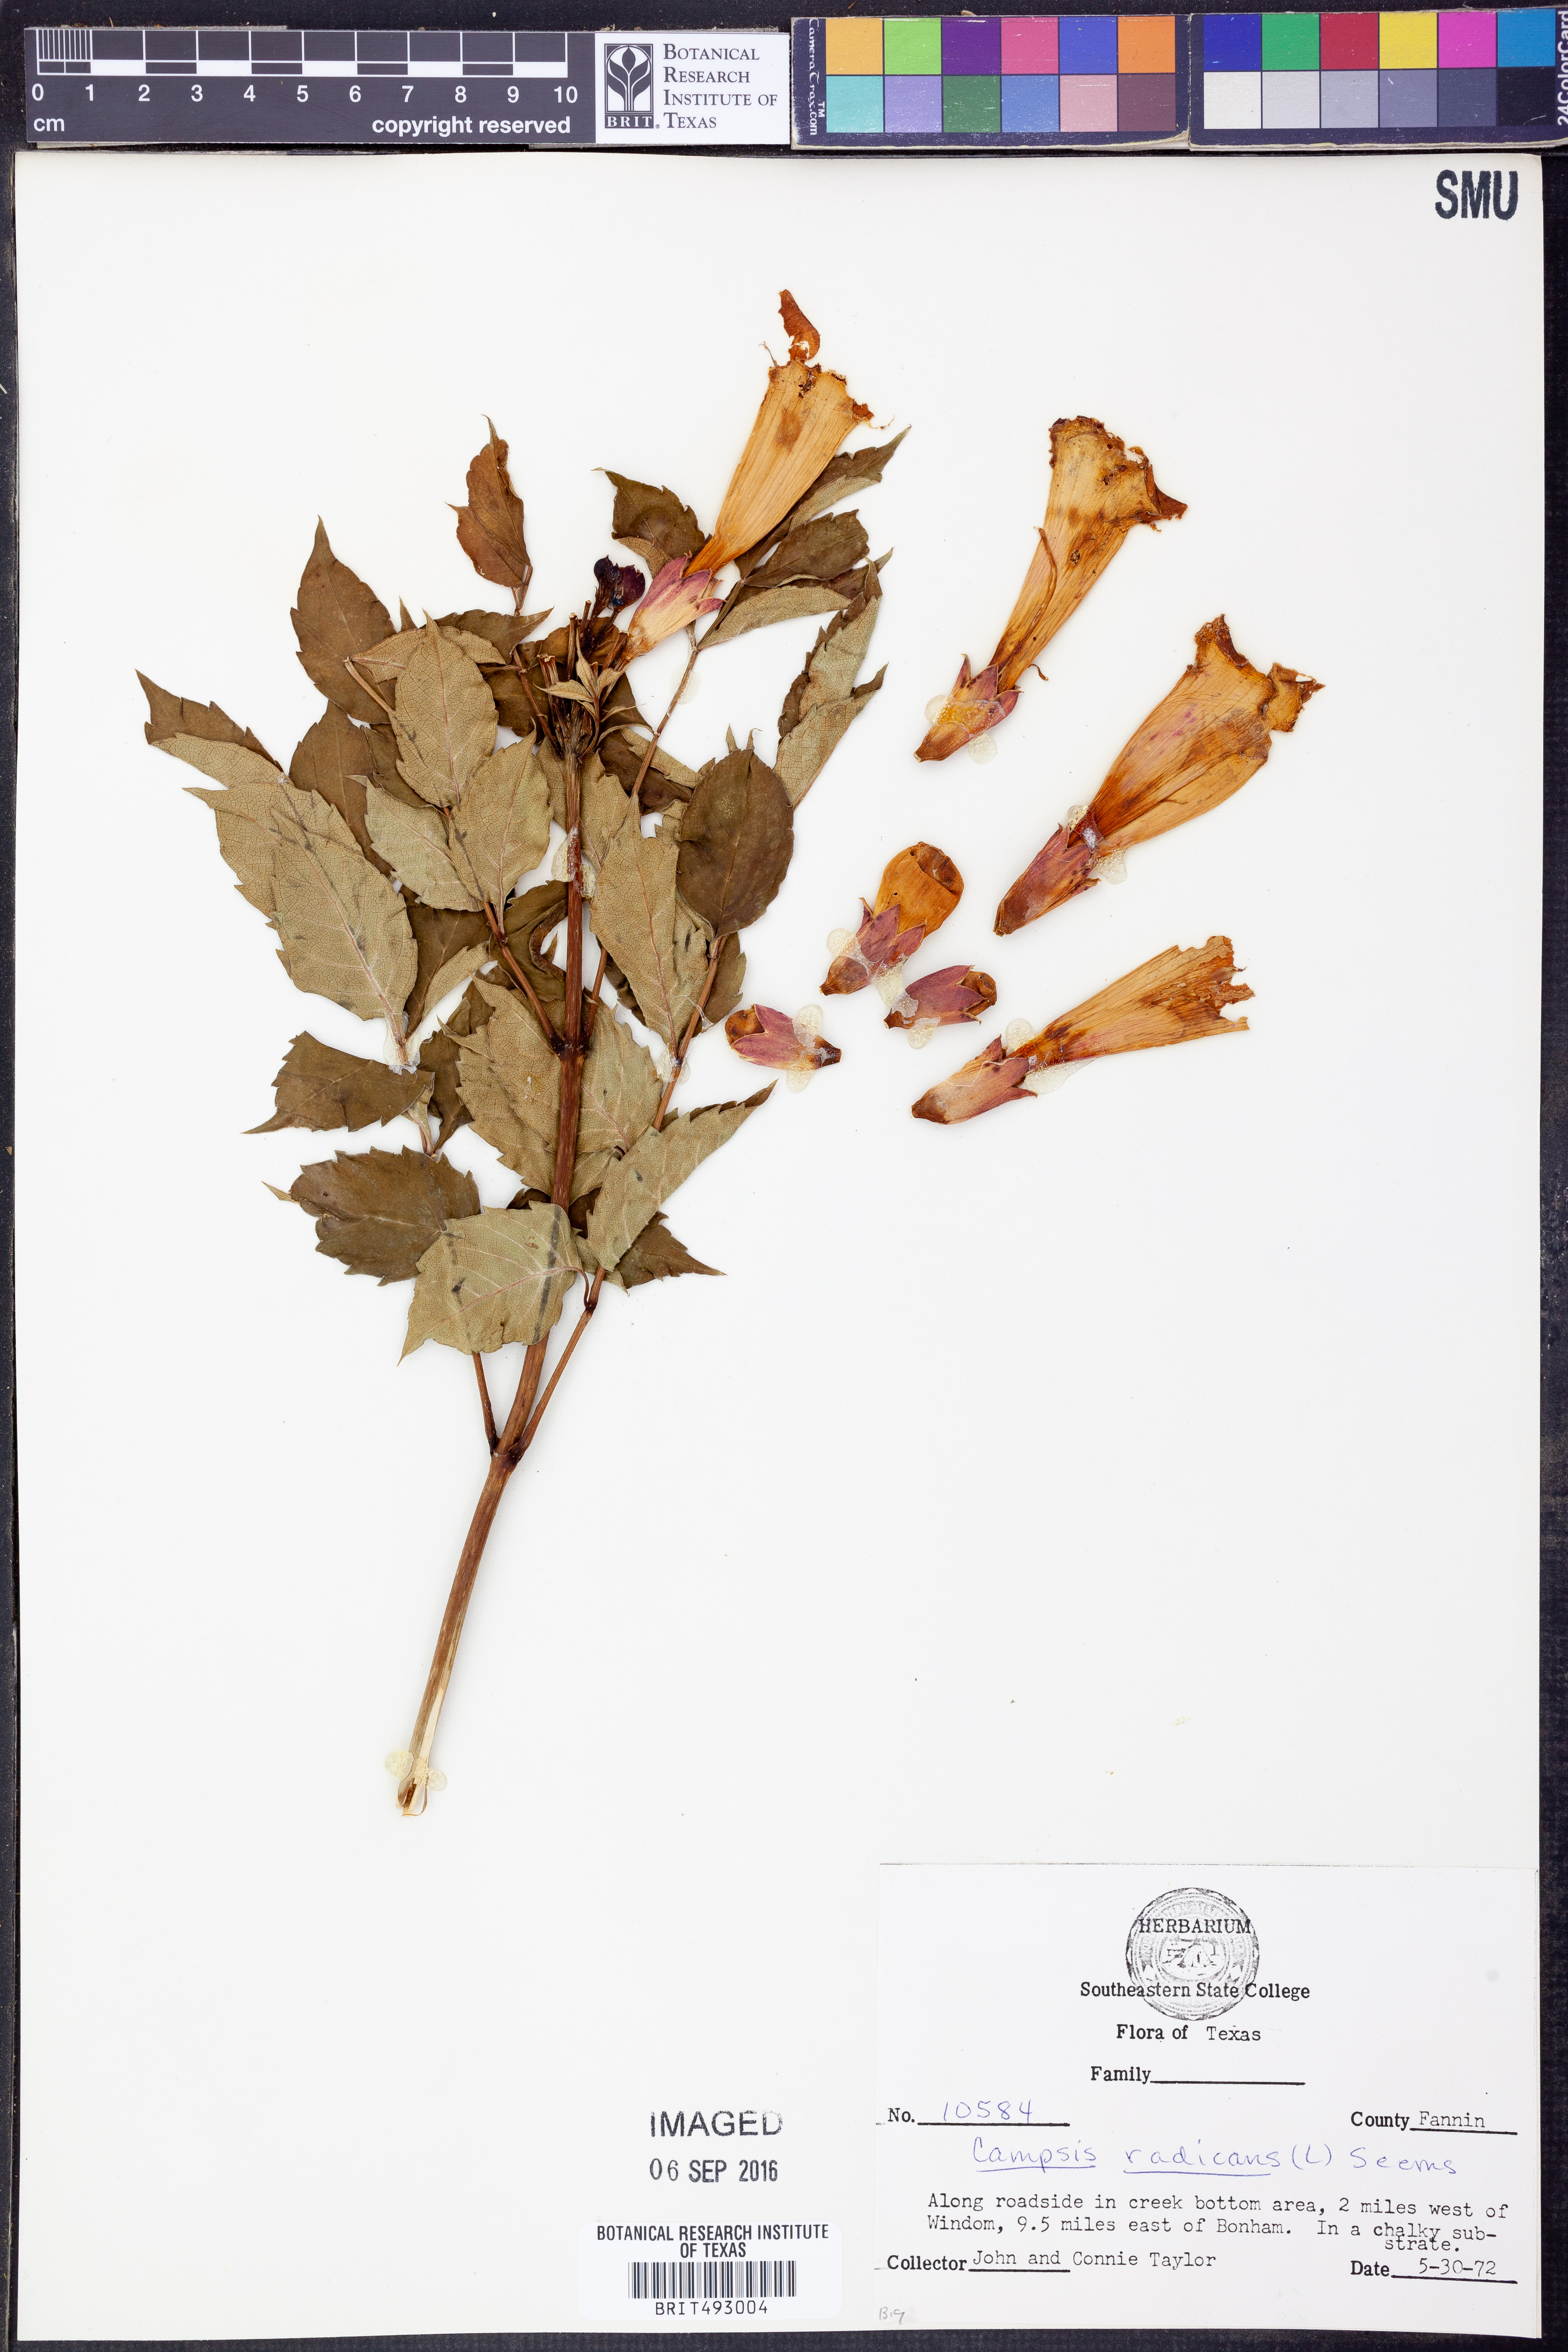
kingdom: Plantae
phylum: Tracheophyta
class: Magnoliopsida
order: Lamiales
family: Bignoniaceae
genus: Campsis
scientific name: Campsis radicans
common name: Trumpet-creeper
